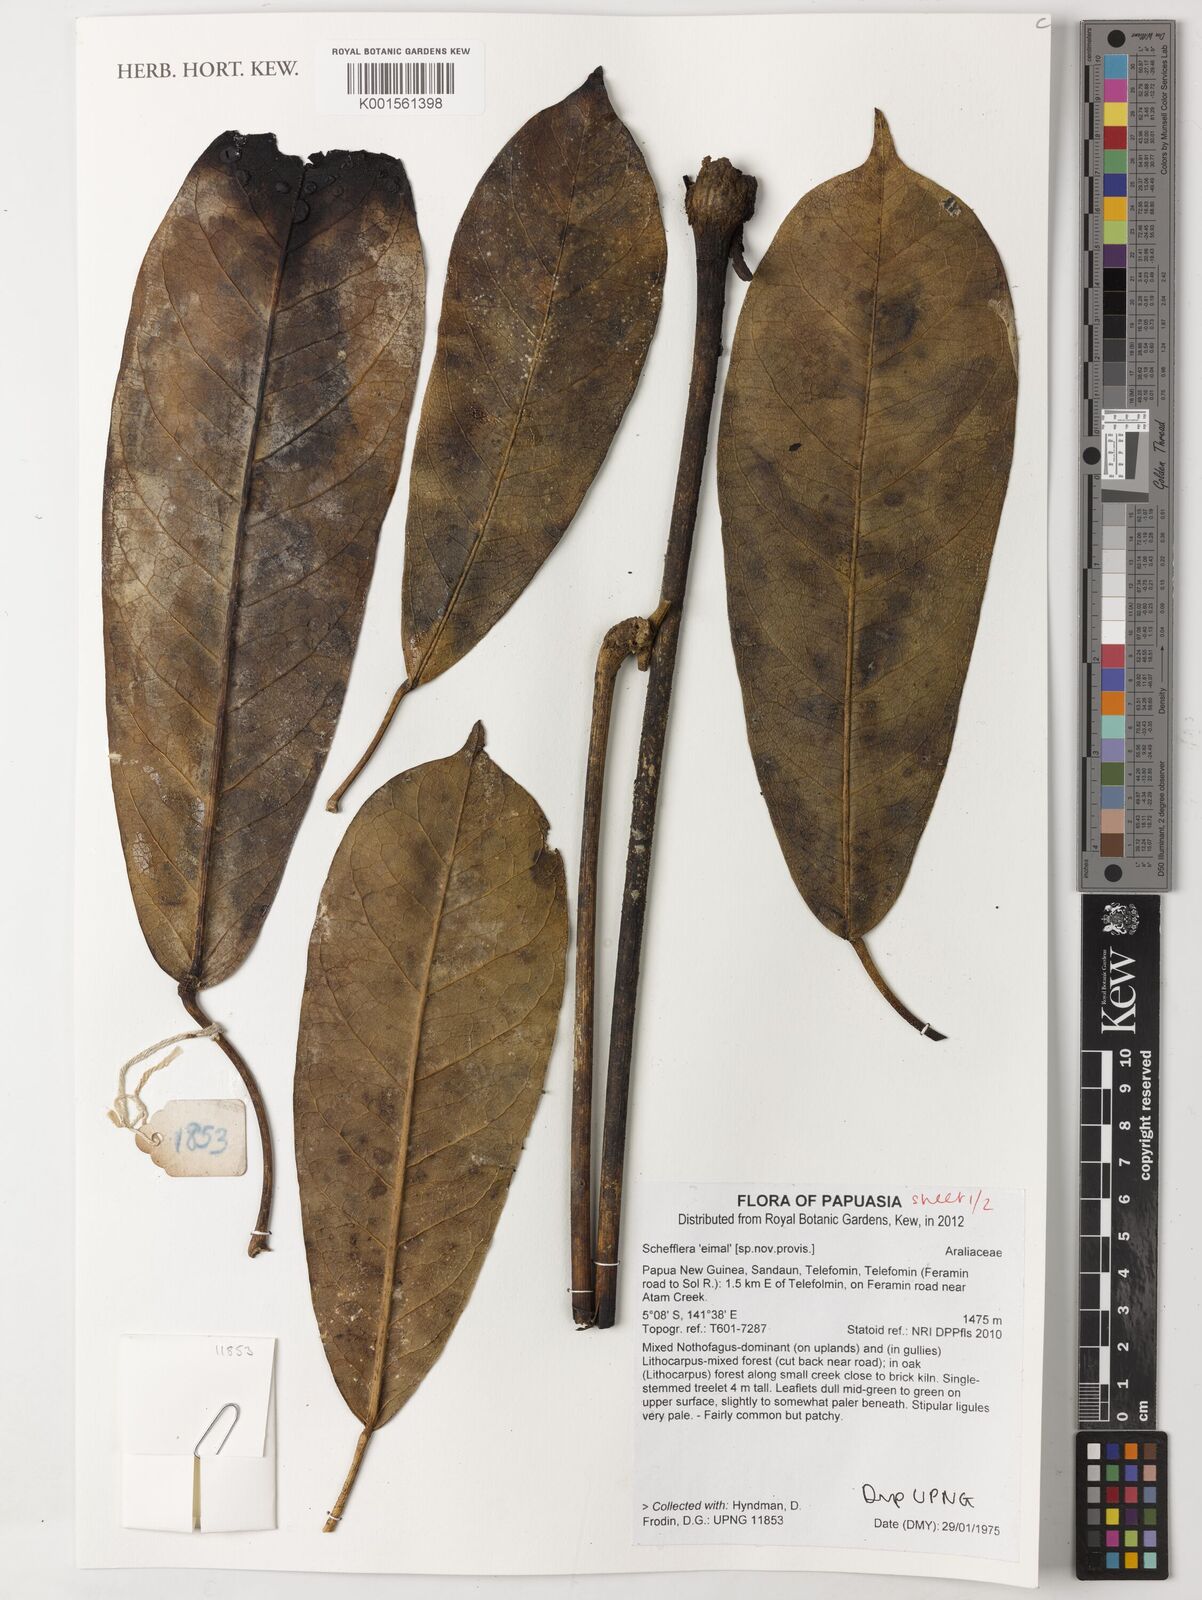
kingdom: Plantae
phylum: Tracheophyta
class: Magnoliopsida
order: Apiales
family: Araliaceae
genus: Schefflera
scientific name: Schefflera
